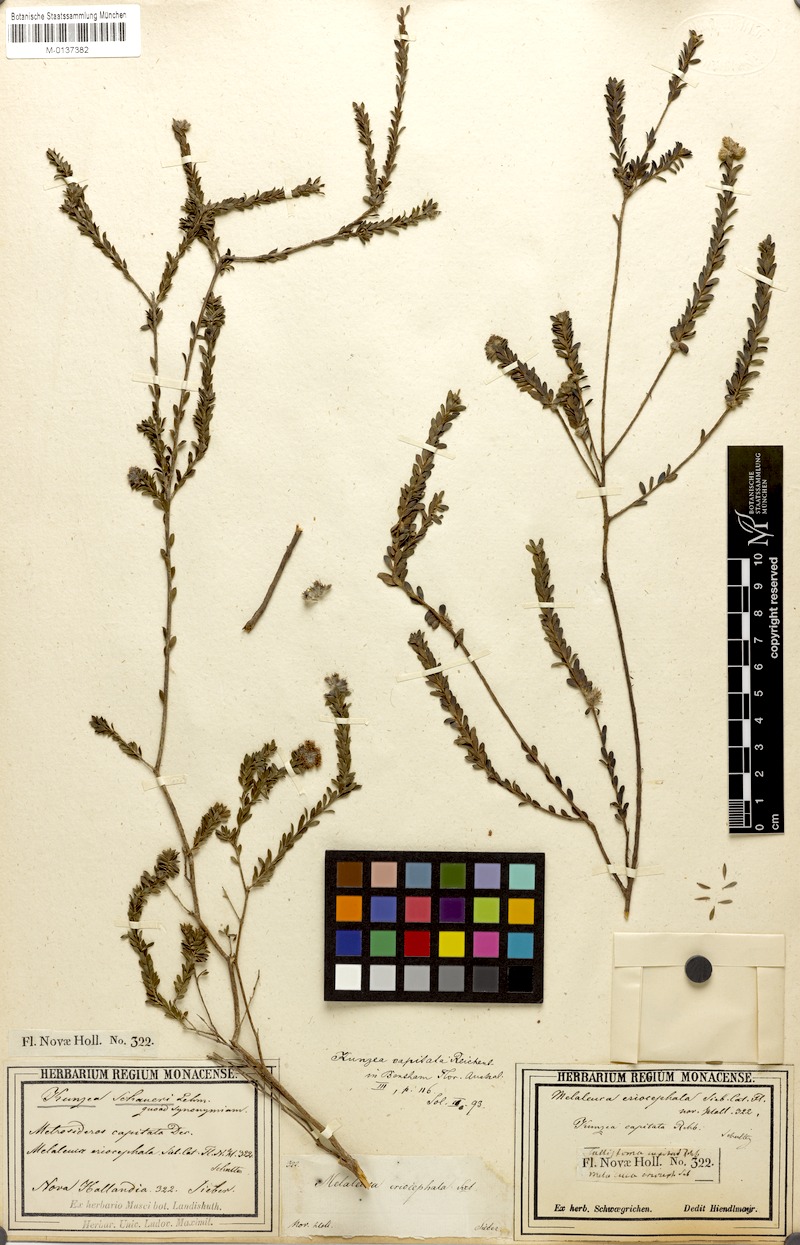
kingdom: Plantae
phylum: Tracheophyta
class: Magnoliopsida
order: Myrtales
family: Myrtaceae
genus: Kunzea
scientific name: Kunzea capitata
